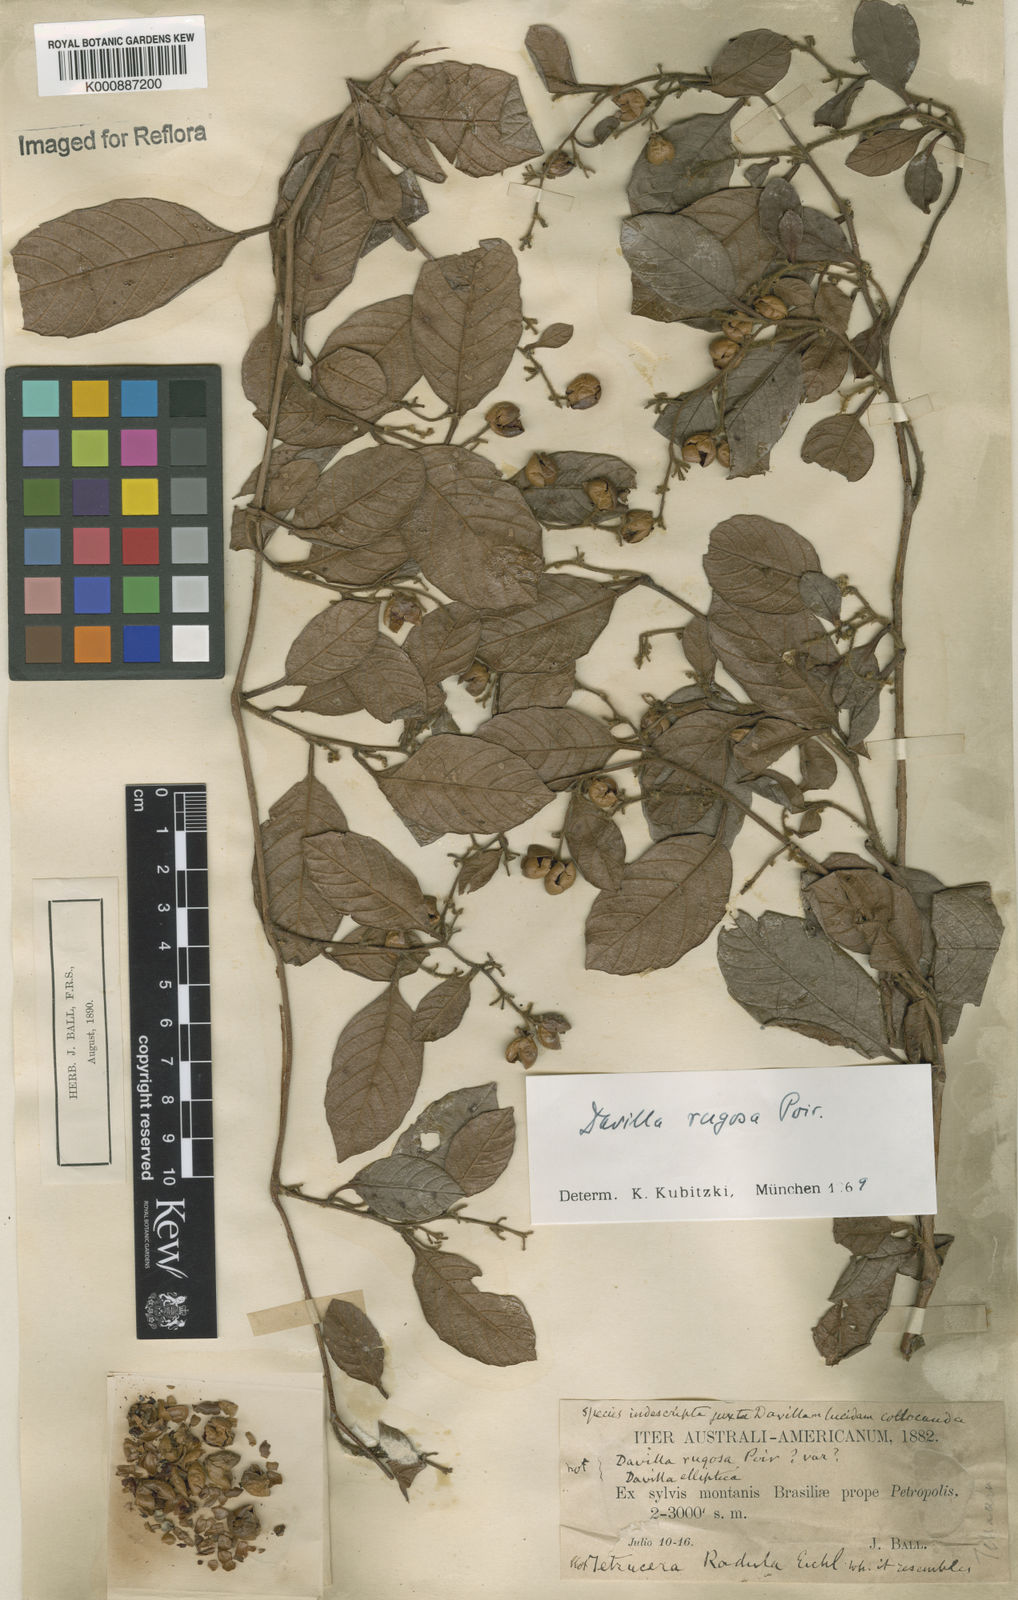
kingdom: Plantae
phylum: Tracheophyta
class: Magnoliopsida
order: Dilleniales
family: Dilleniaceae
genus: Davilla
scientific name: Davilla rugosa
